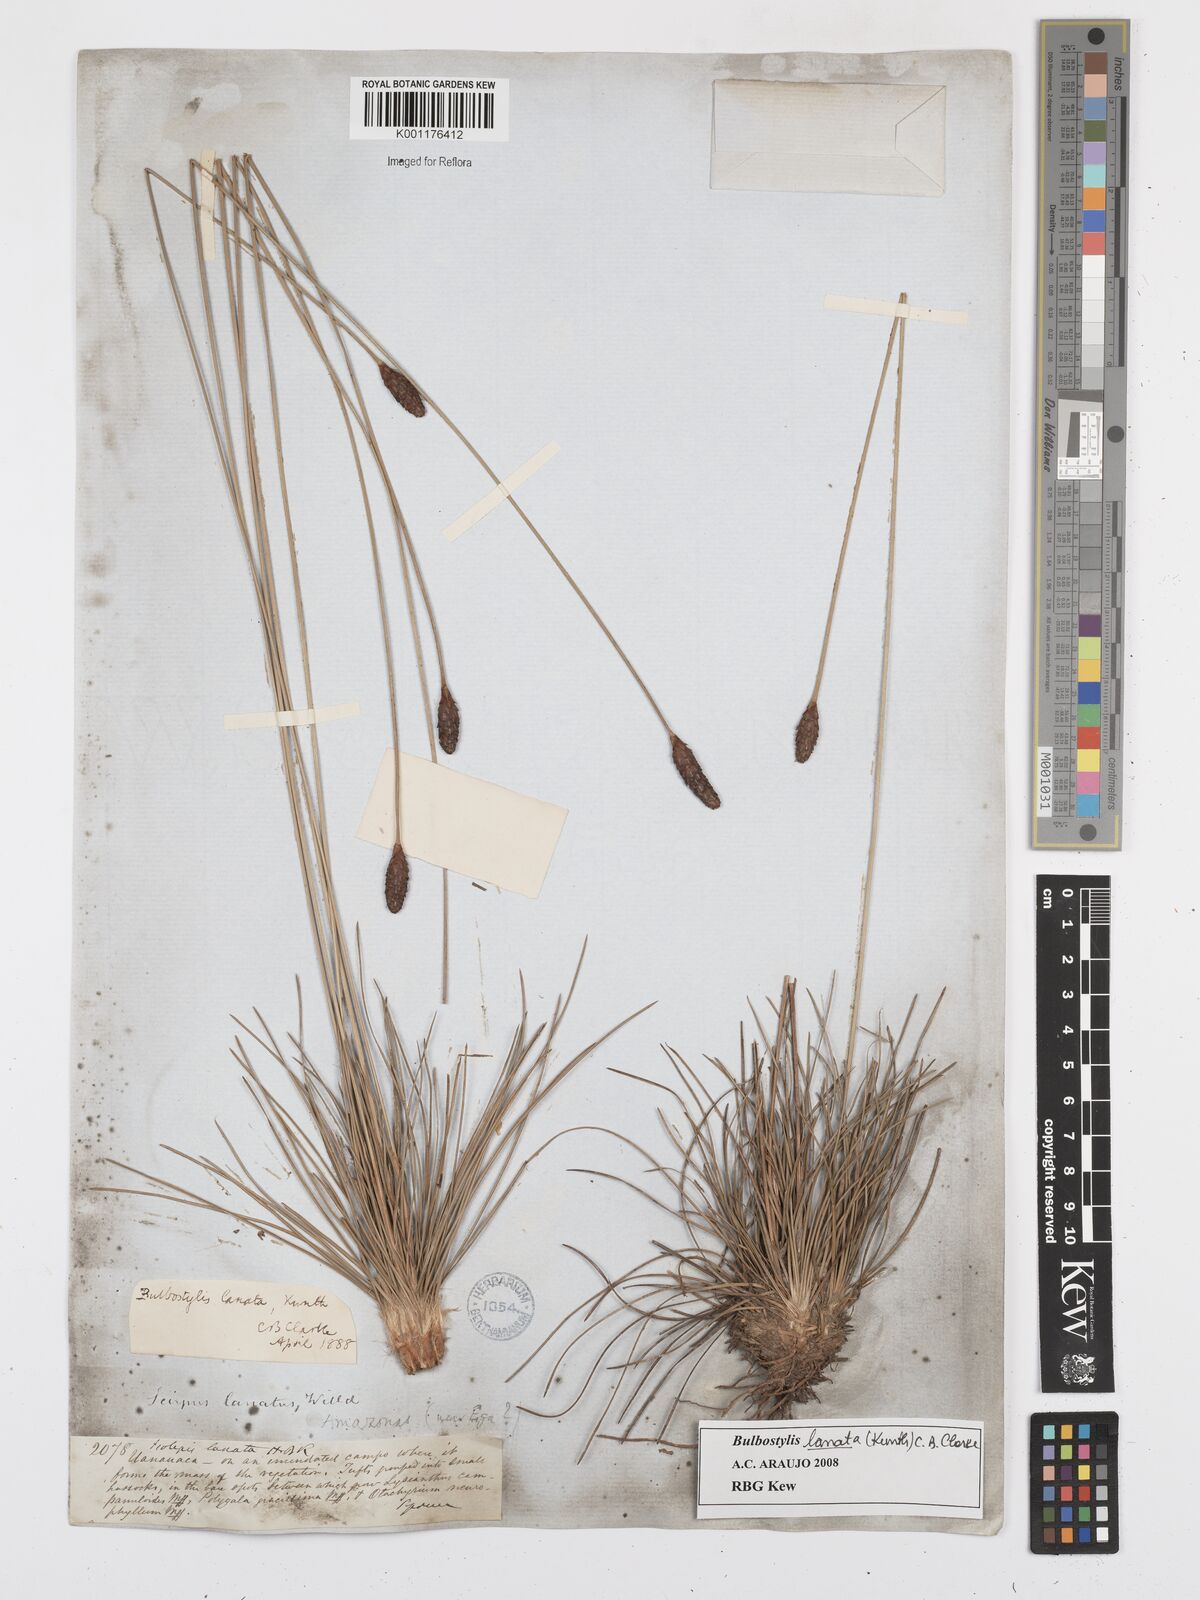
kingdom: Plantae
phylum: Tracheophyta
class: Liliopsida
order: Poales
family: Cyperaceae
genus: Bulbostylis
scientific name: Bulbostylis lanata
